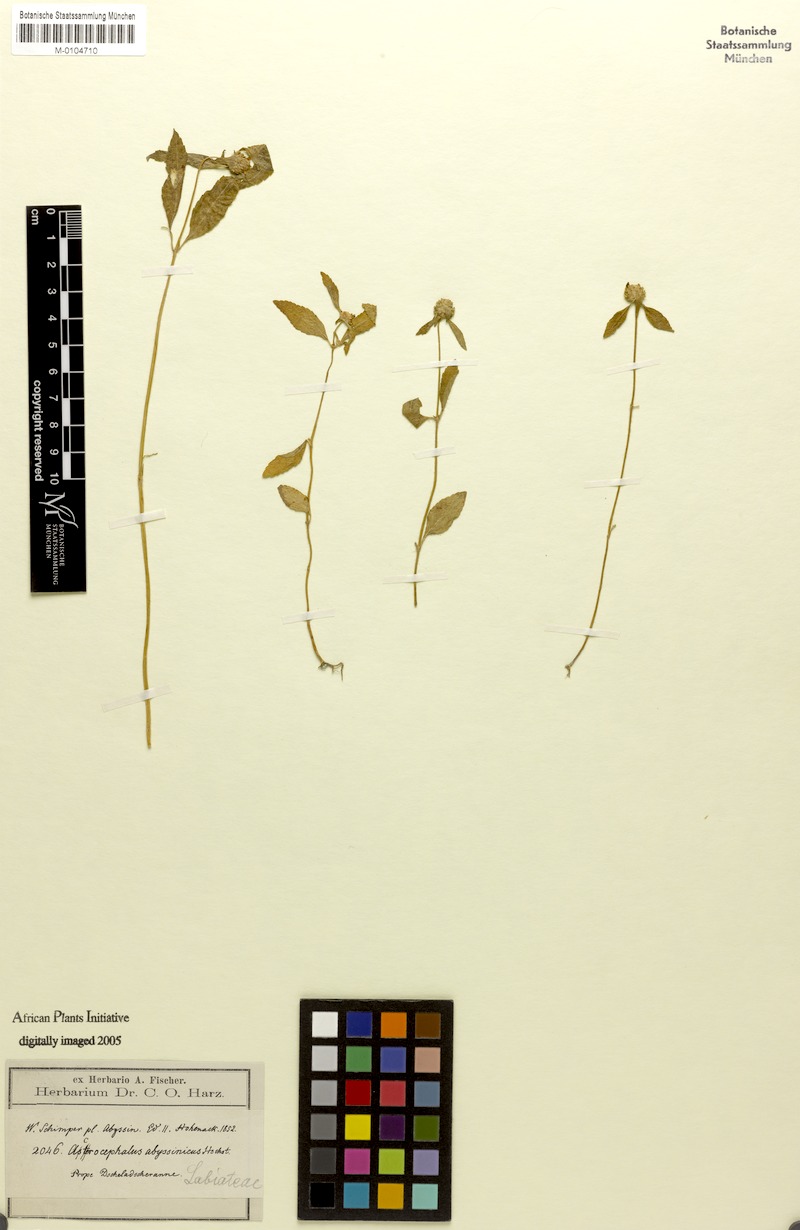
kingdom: Plantae
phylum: Tracheophyta
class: Magnoliopsida
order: Lamiales
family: Lamiaceae
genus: Haumaniastrum
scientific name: Haumaniastrum villosum
